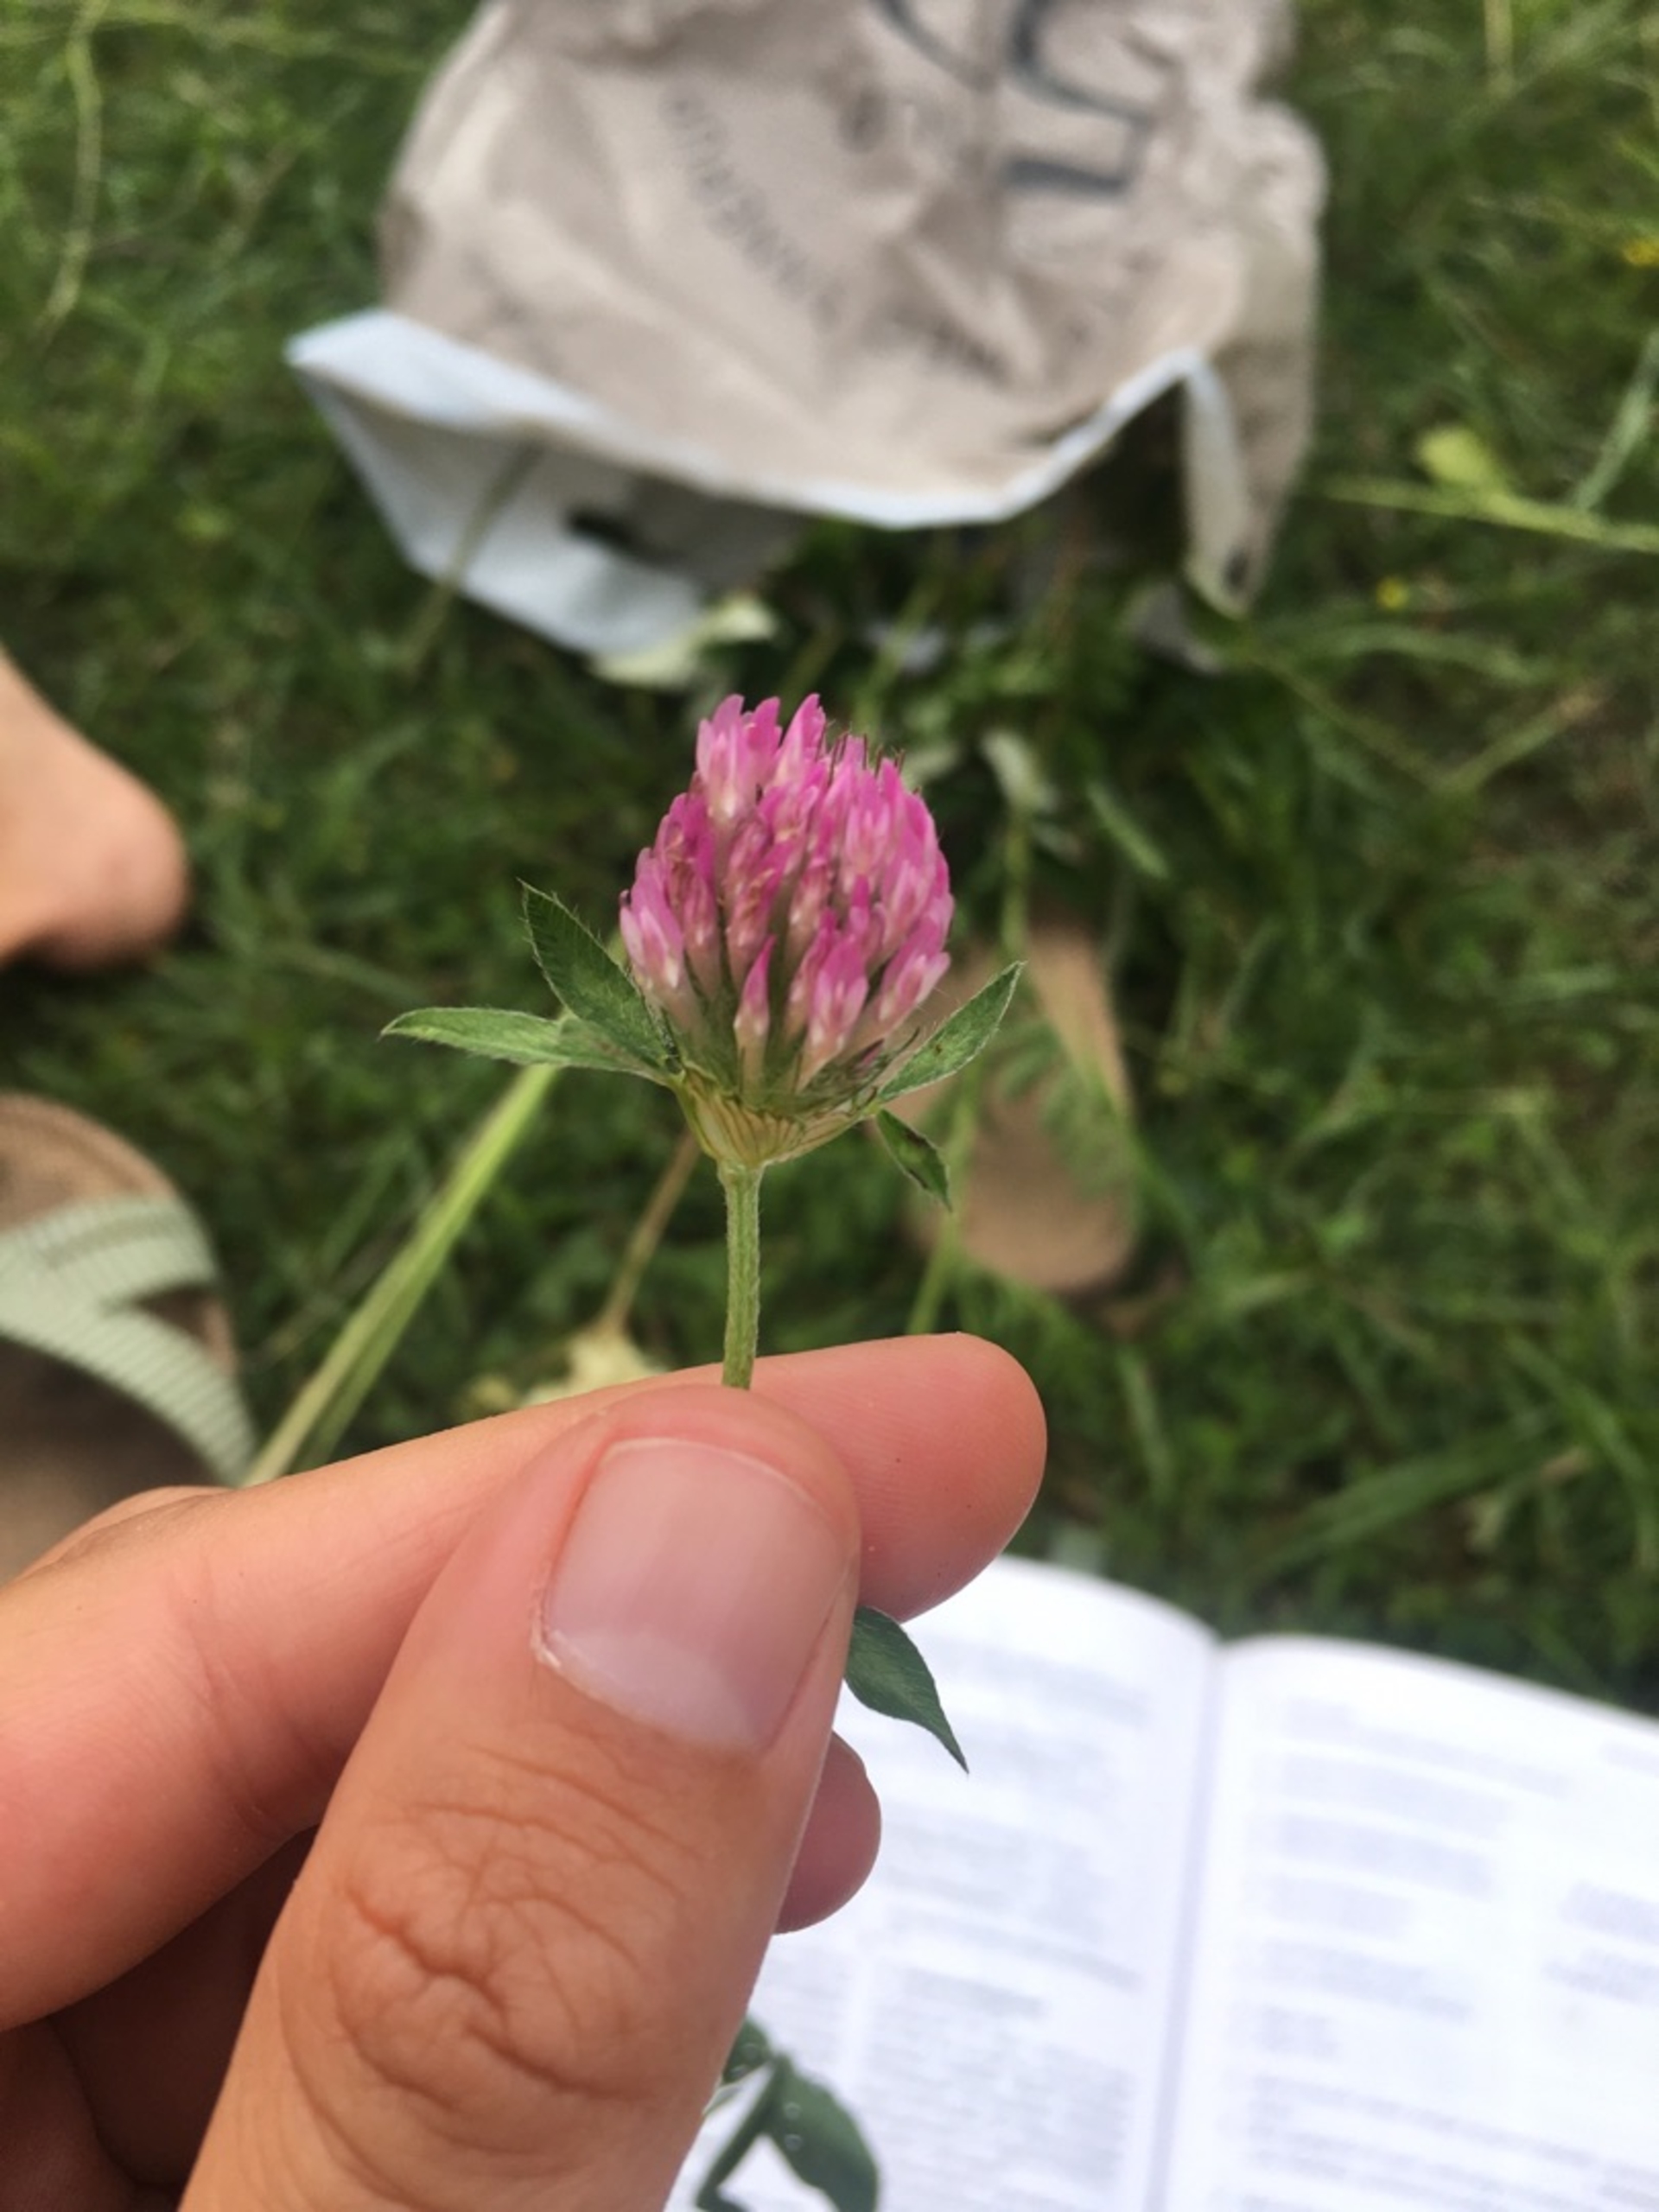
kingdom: Plantae
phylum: Tracheophyta
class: Magnoliopsida
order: Fabales
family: Fabaceae
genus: Trifolium
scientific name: Trifolium pratense
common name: Rød-kløver
